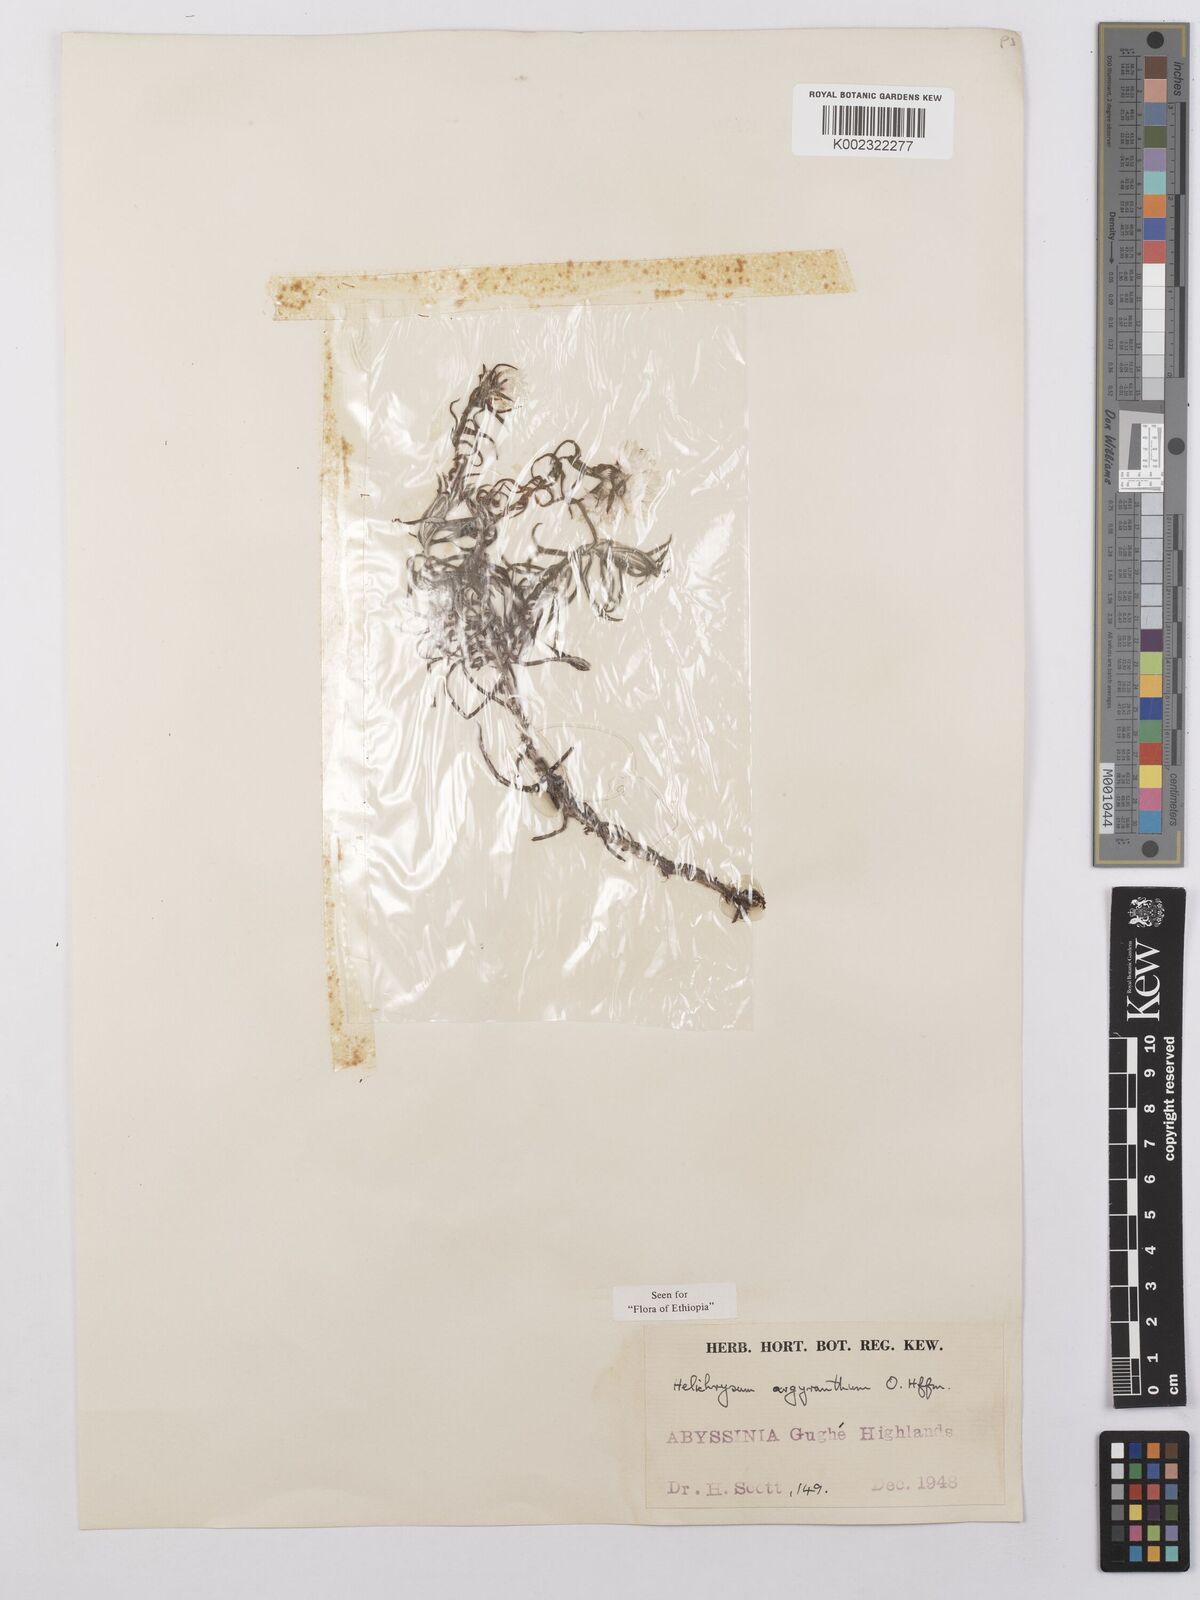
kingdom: Plantae
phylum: Tracheophyta
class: Magnoliopsida
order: Asterales
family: Asteraceae
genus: Helichrysum
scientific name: Helichrysum argyranthum
